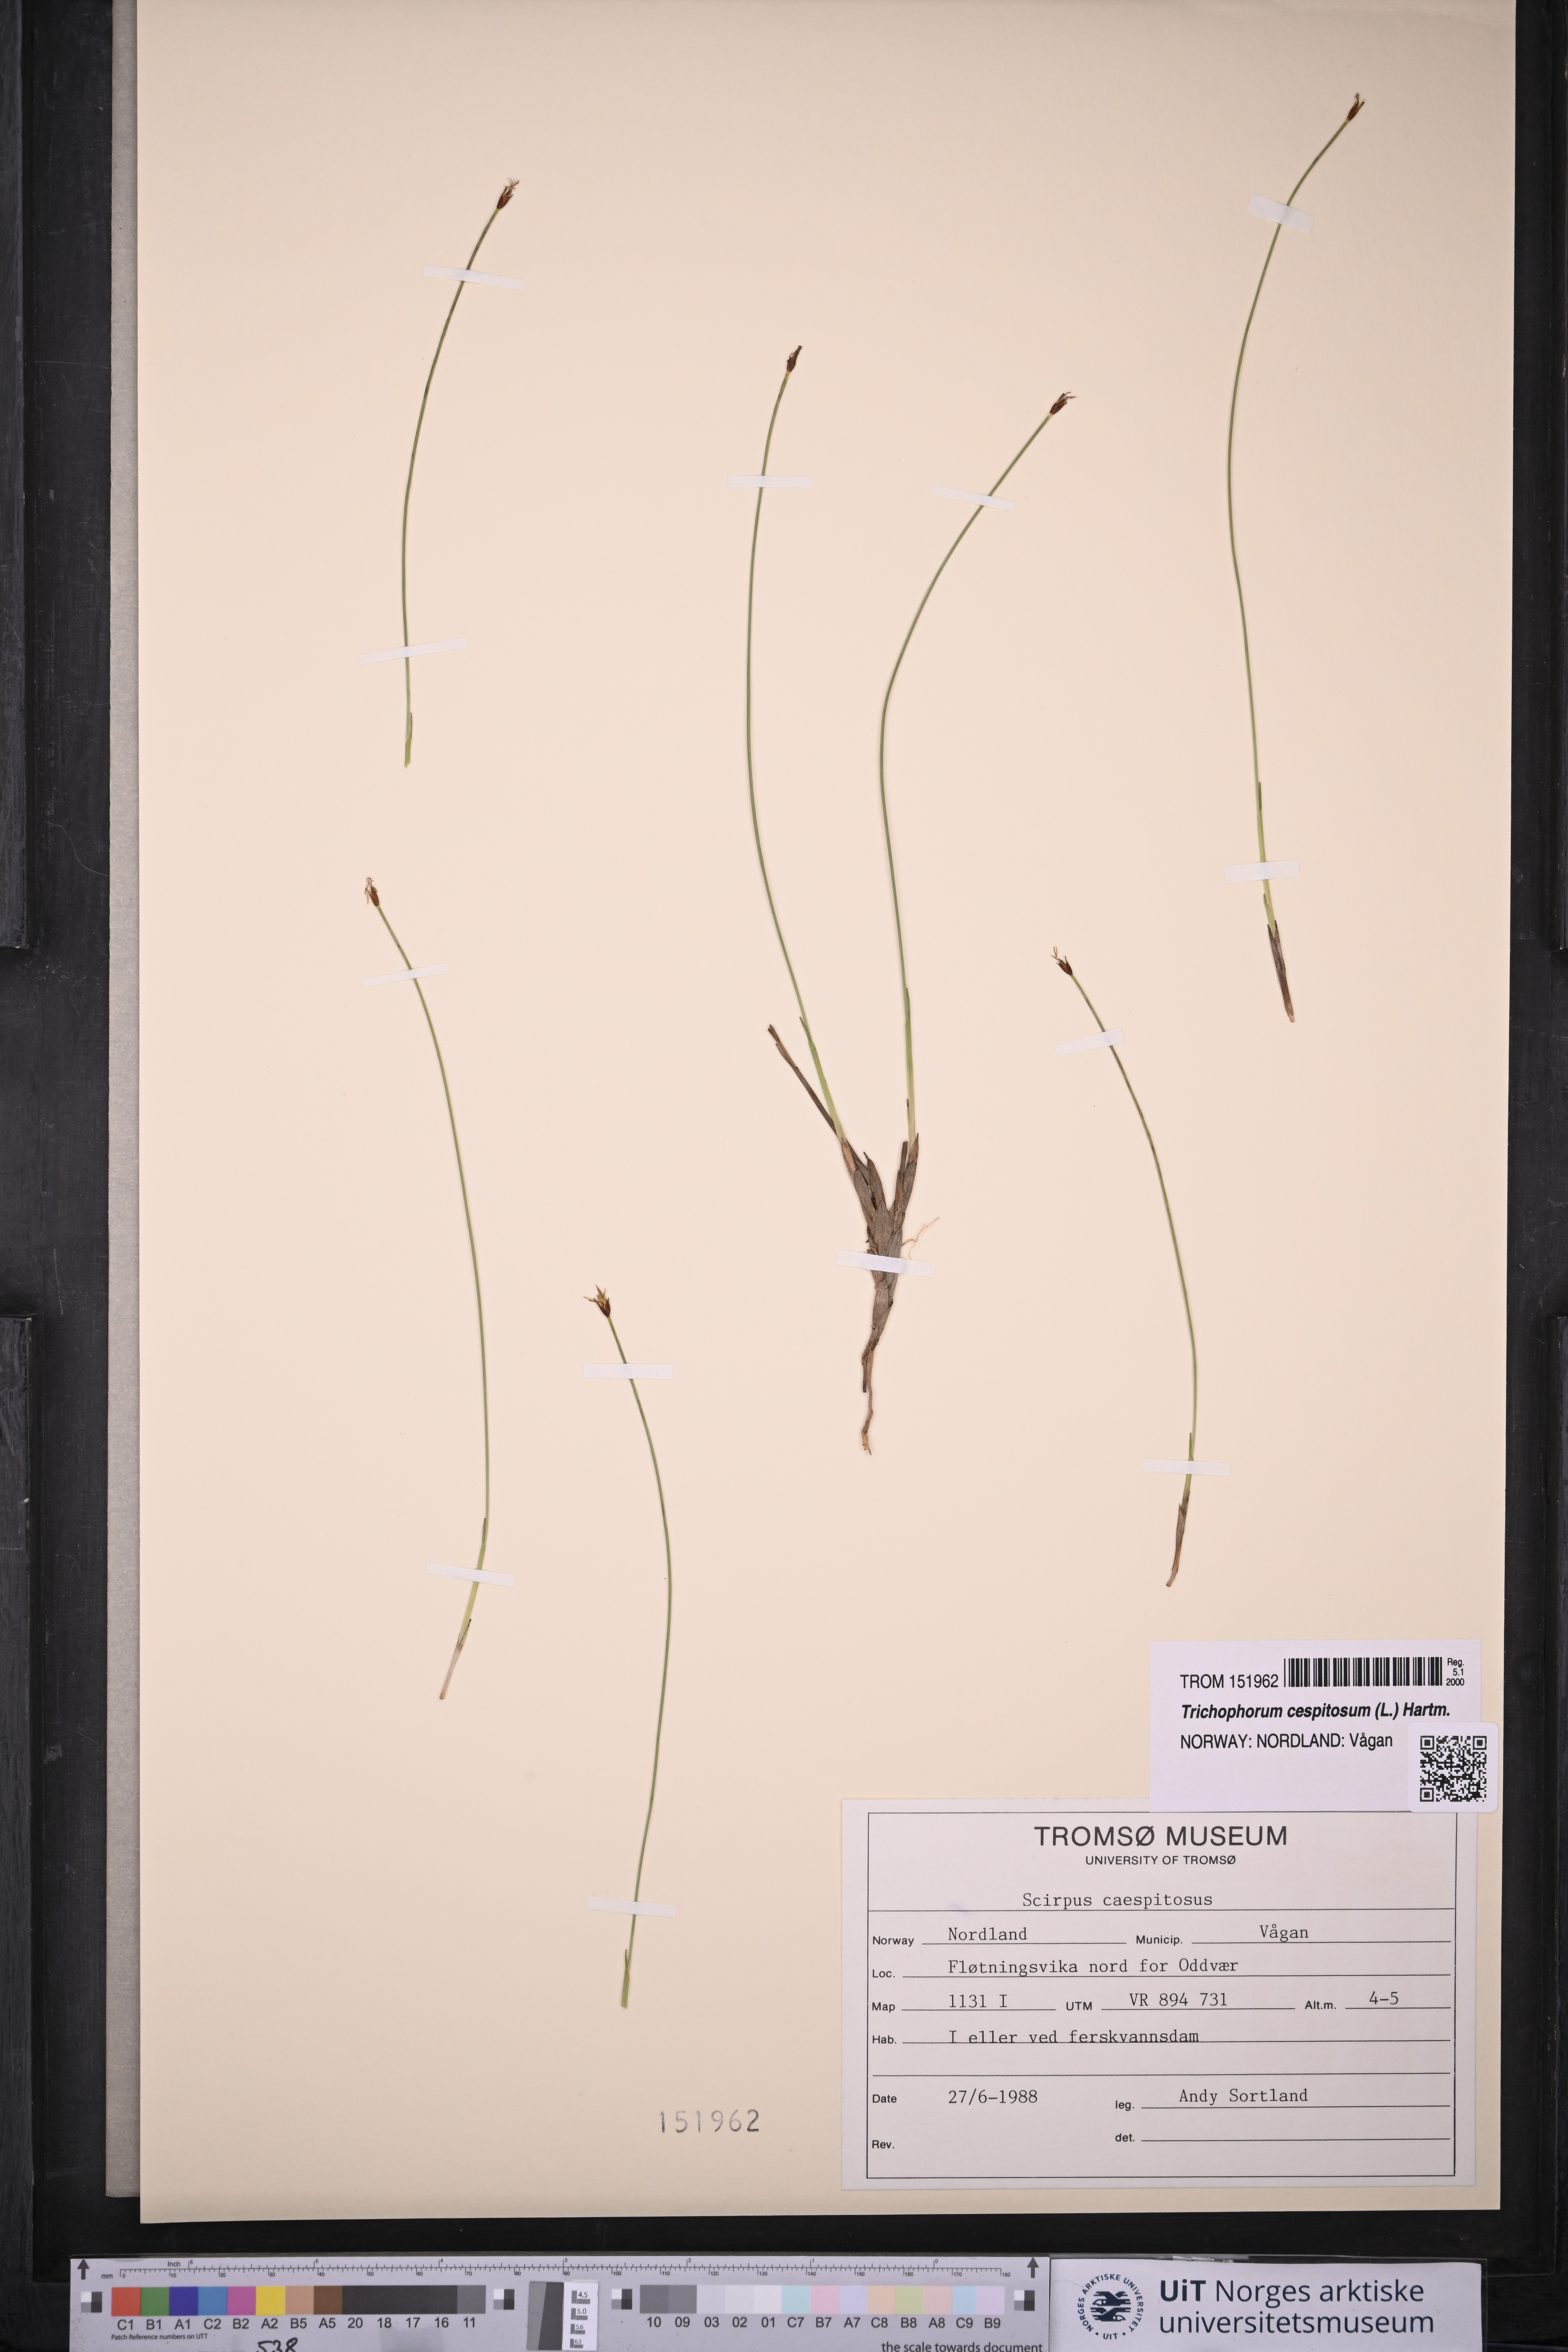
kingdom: Plantae
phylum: Tracheophyta
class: Liliopsida
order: Poales
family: Cyperaceae
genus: Trichophorum
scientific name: Trichophorum cespitosum
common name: Cespitose bulrush
